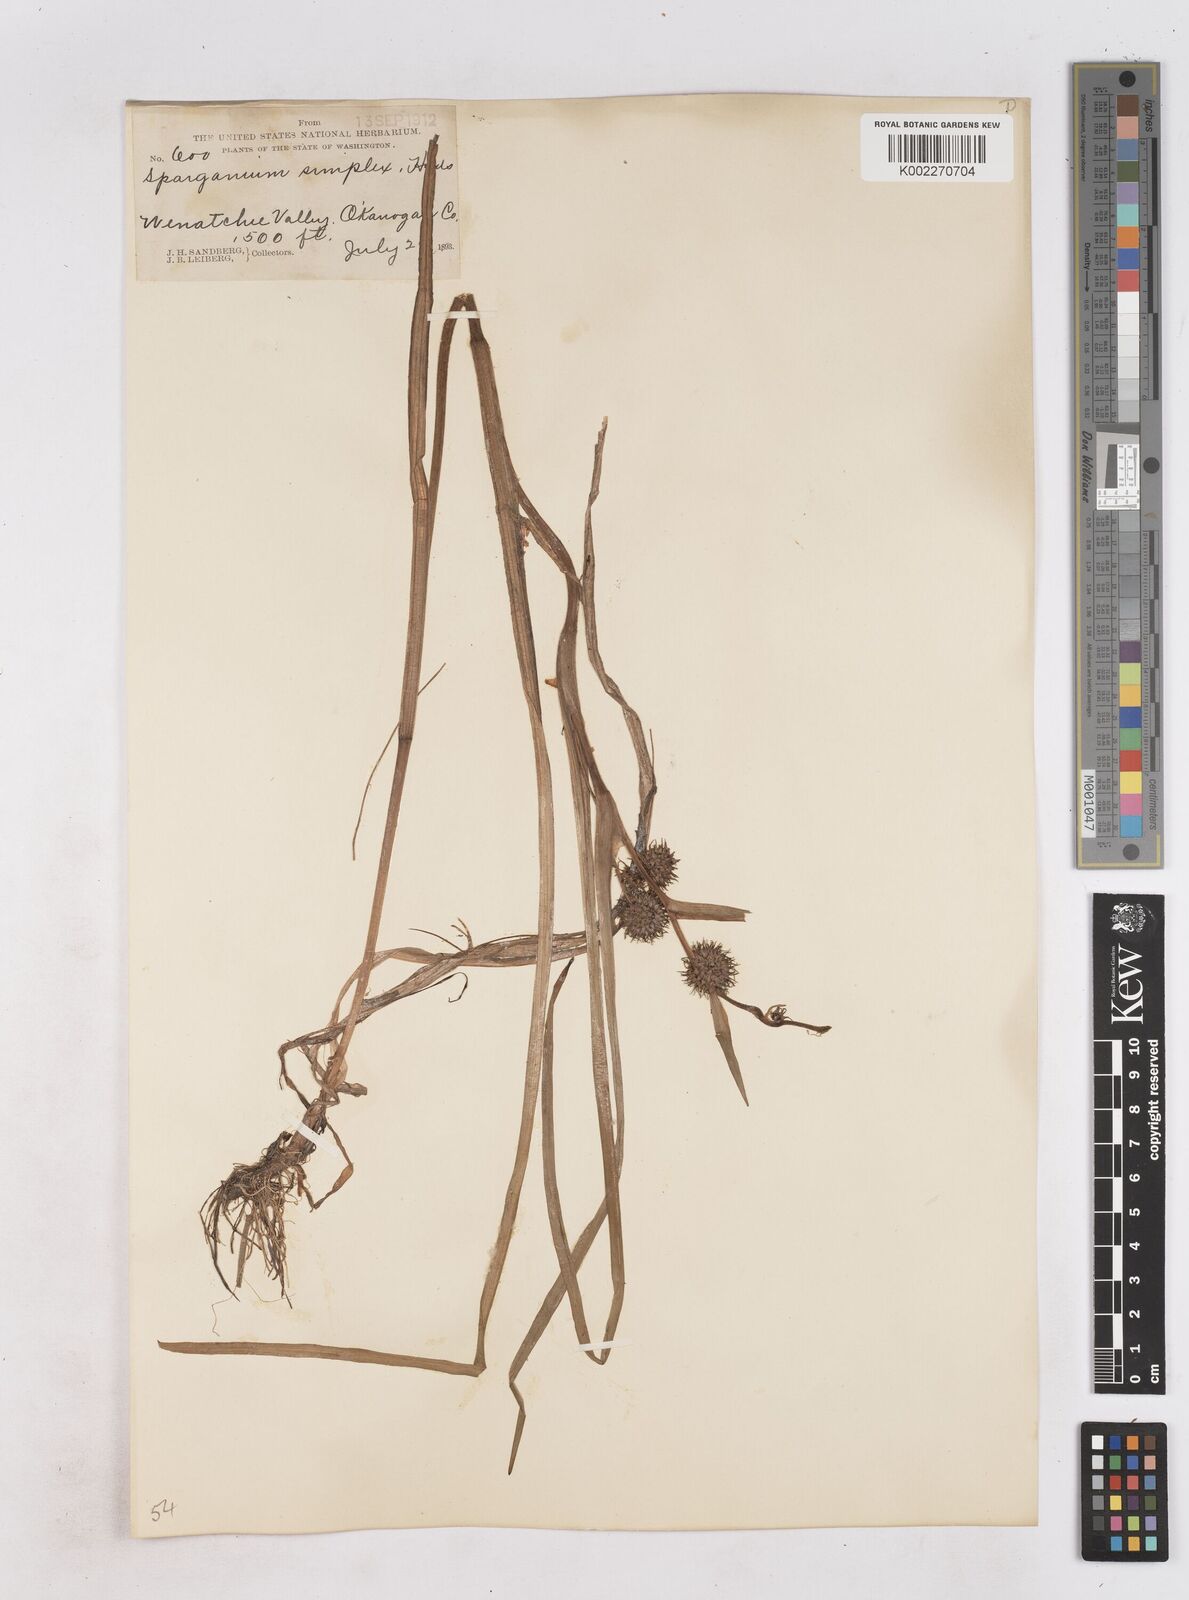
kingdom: Plantae
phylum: Tracheophyta
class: Liliopsida
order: Poales
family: Typhaceae
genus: Sparganium
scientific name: Sparganium emersum
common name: Unbranched bur-reed
